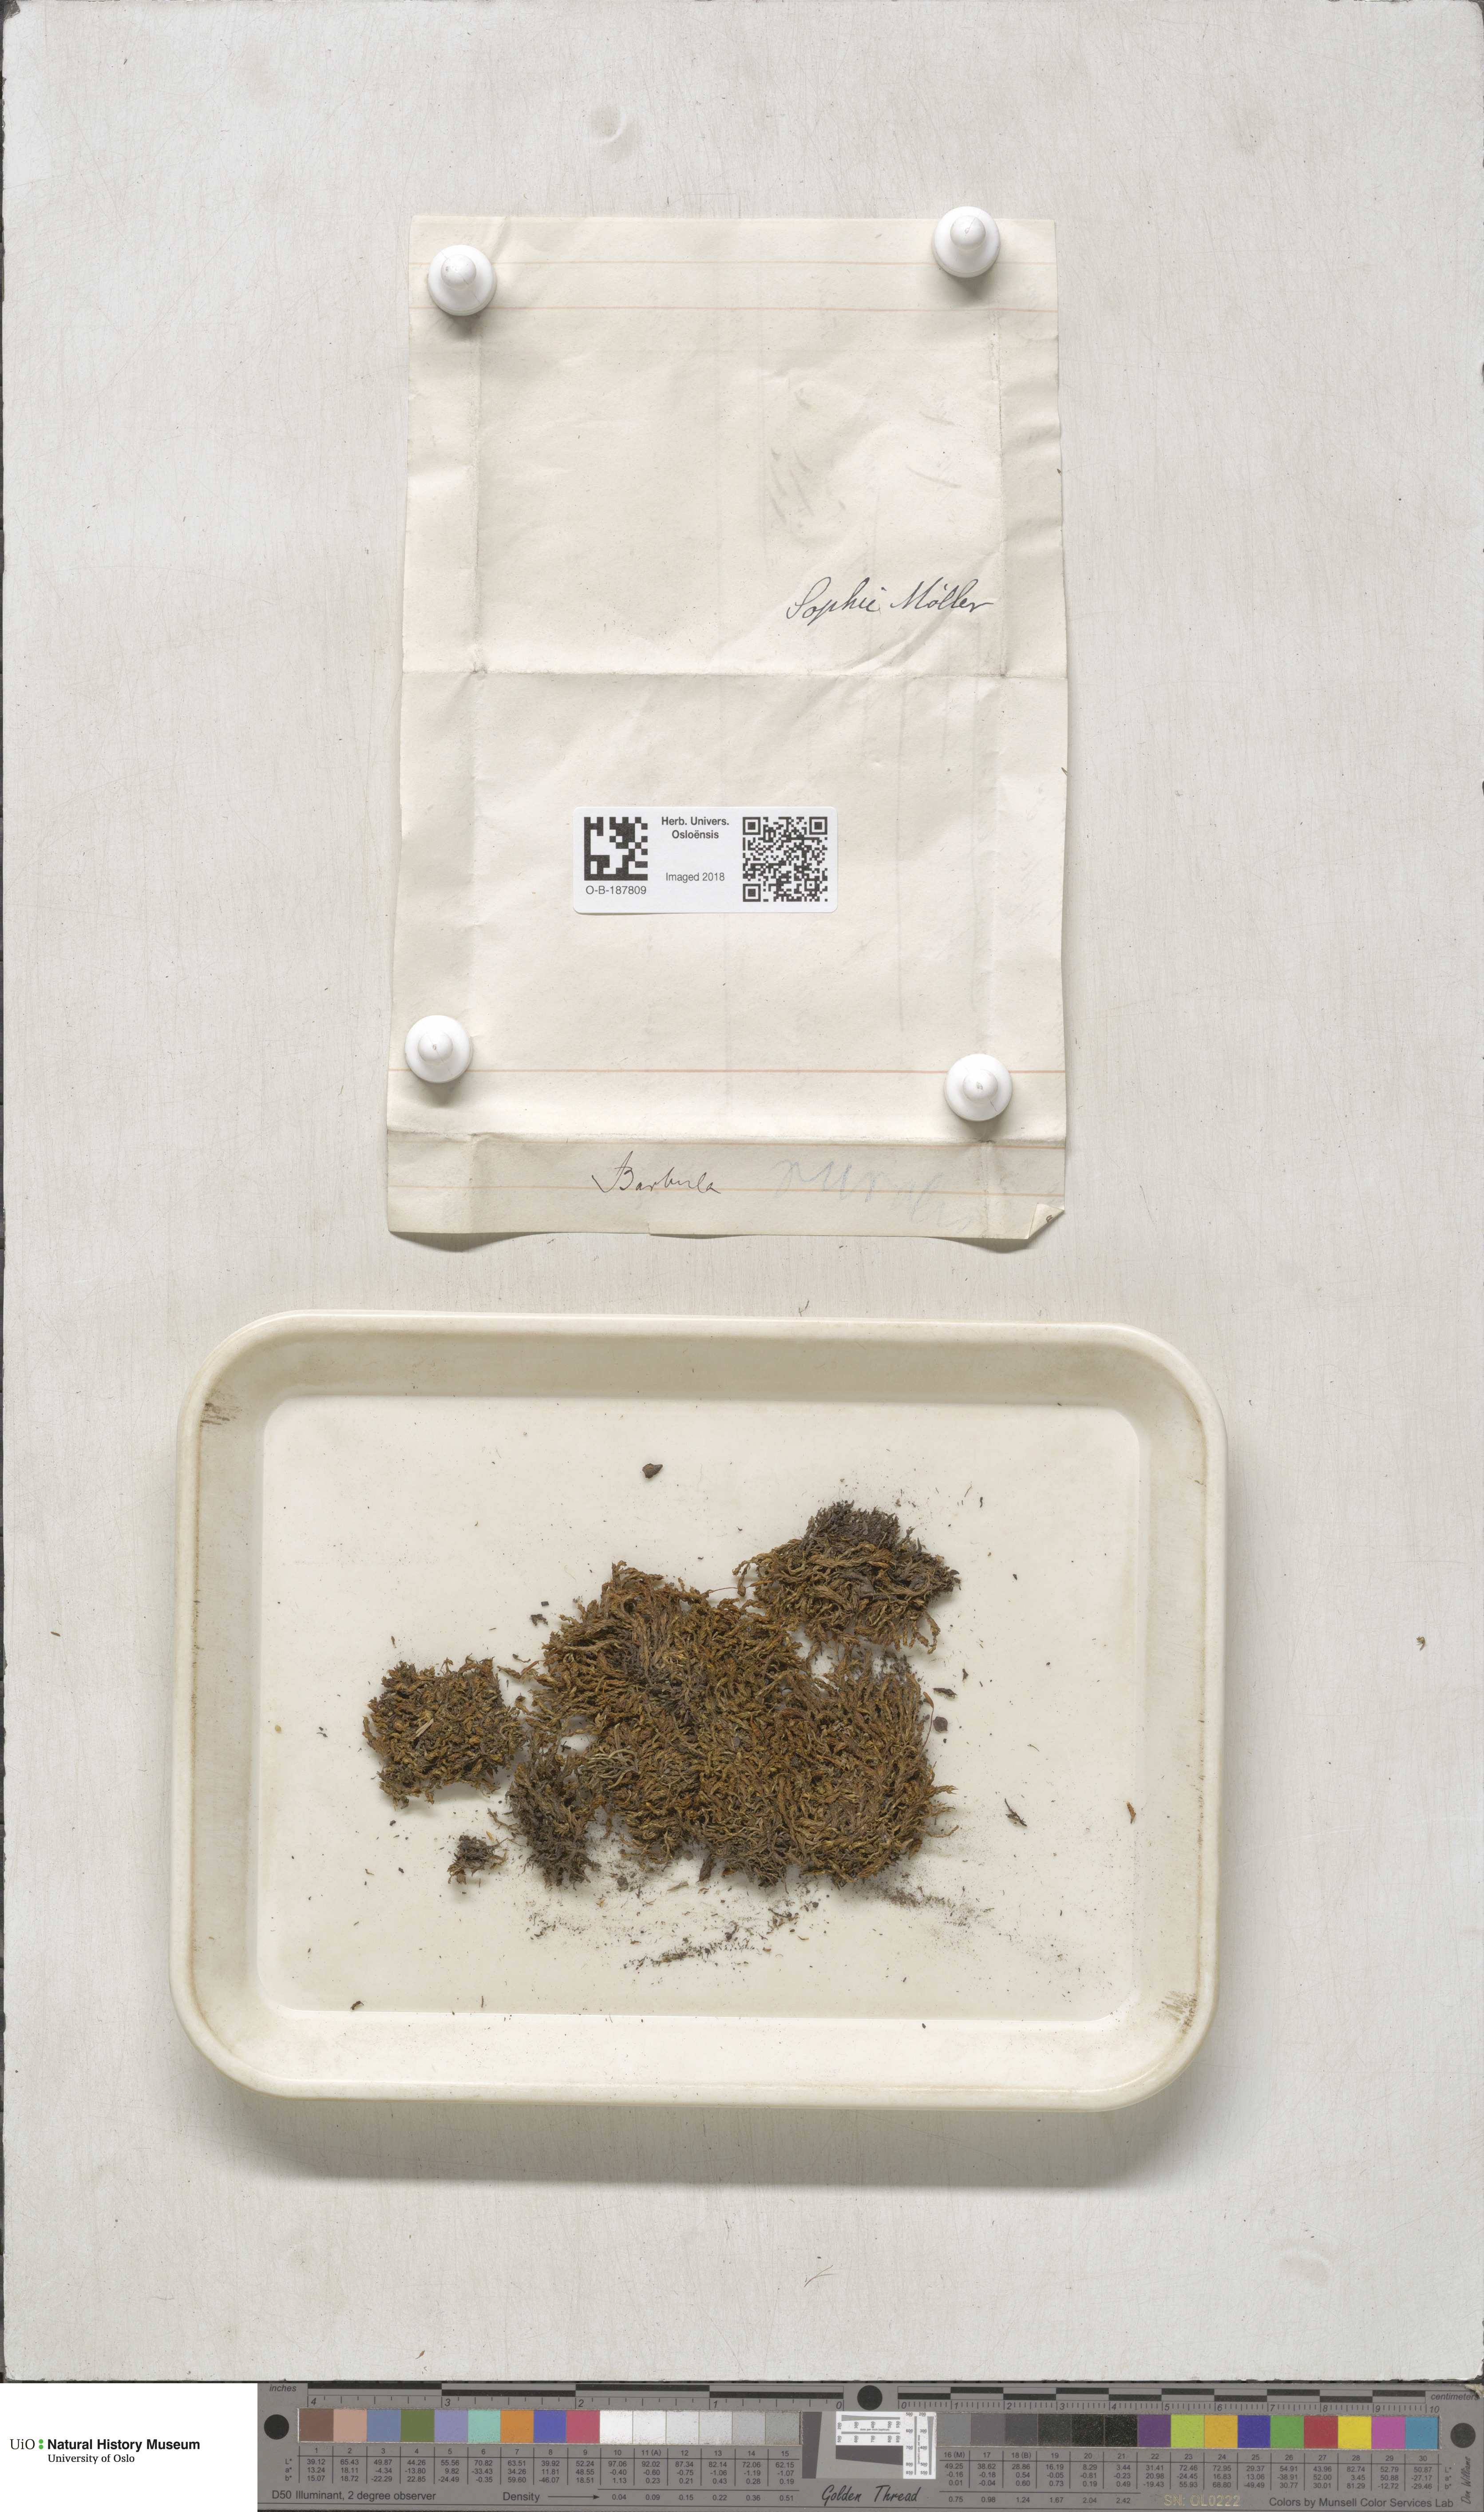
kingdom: Plantae
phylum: Bryophyta
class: Bryopsida
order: Pottiales
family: Pottiaceae
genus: Syntrichia
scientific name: Syntrichia ruralis
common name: Sidewalk screw moss
